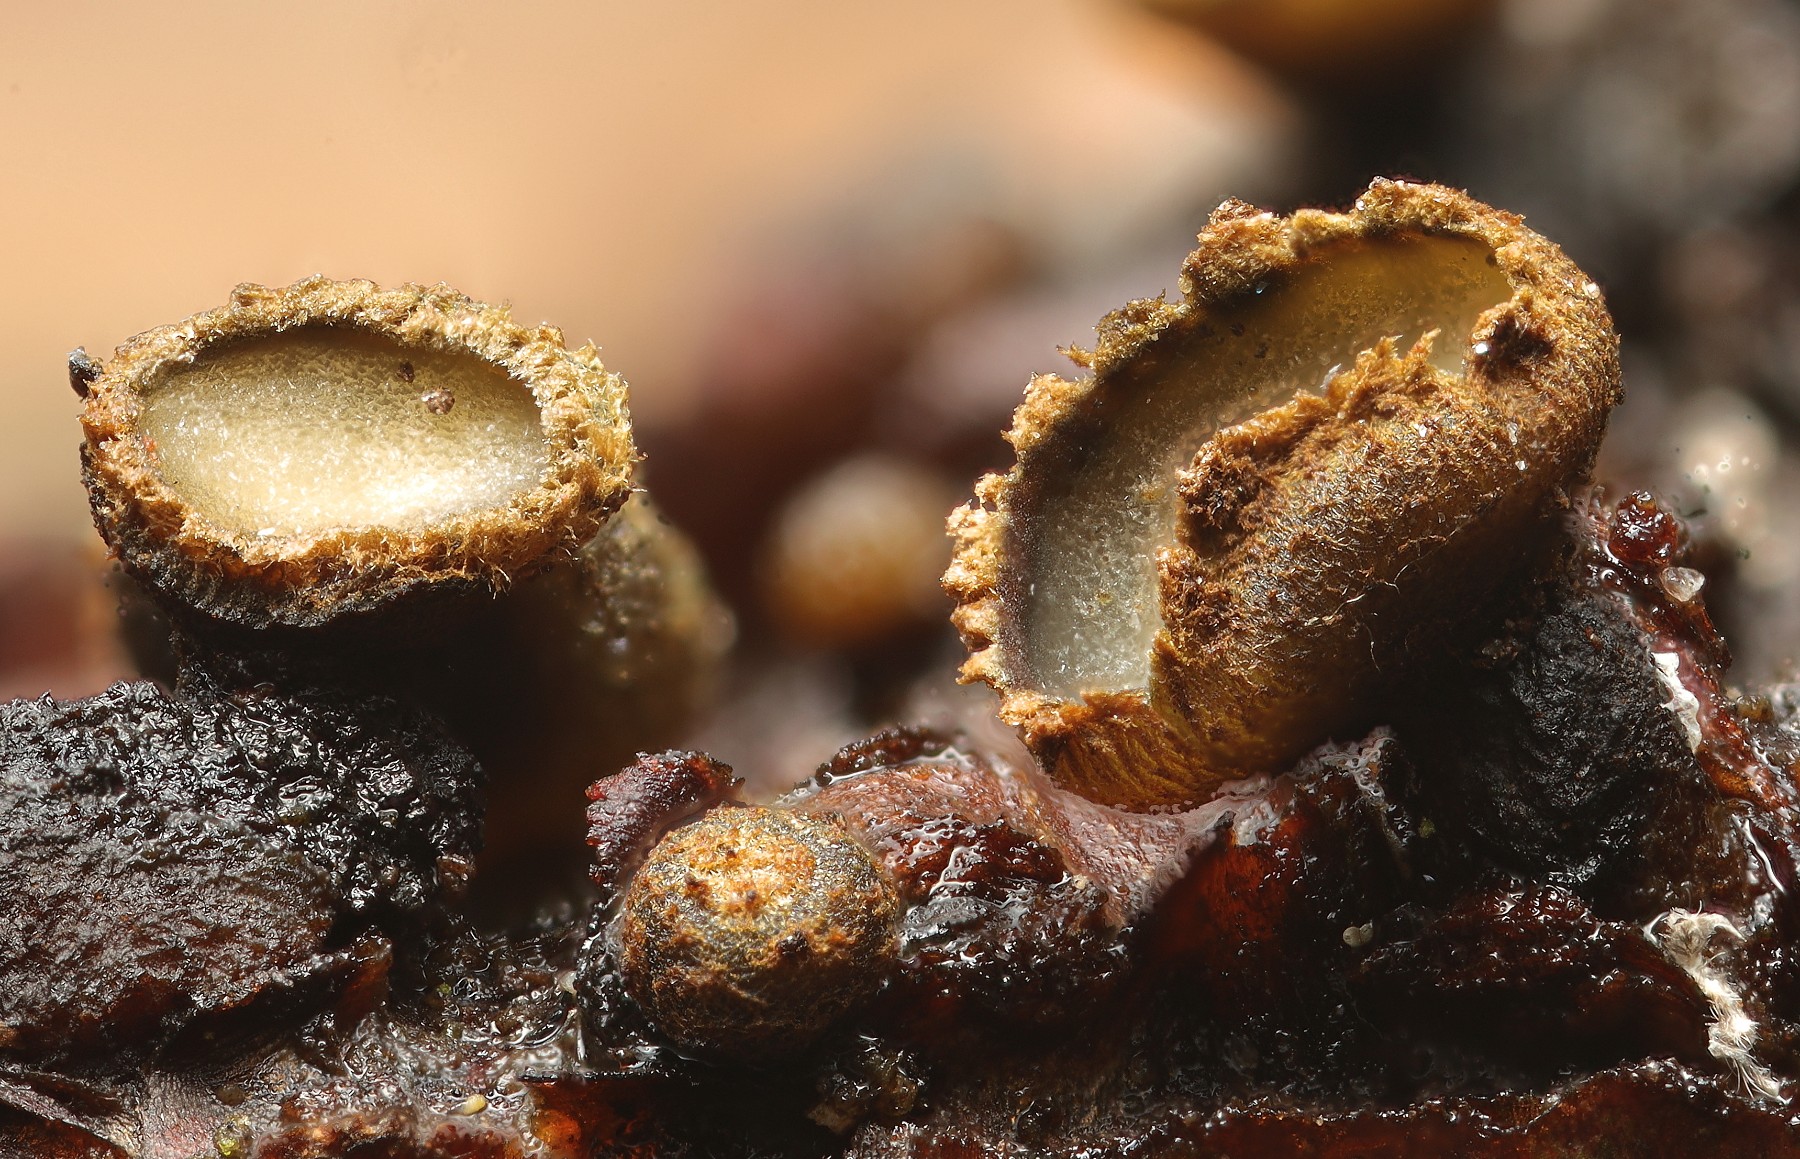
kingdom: Fungi
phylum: Ascomycota
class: Leotiomycetes
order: Helotiales
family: Godroniaceae
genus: Godronia
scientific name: Godronia ribis
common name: ribs-urneskive
